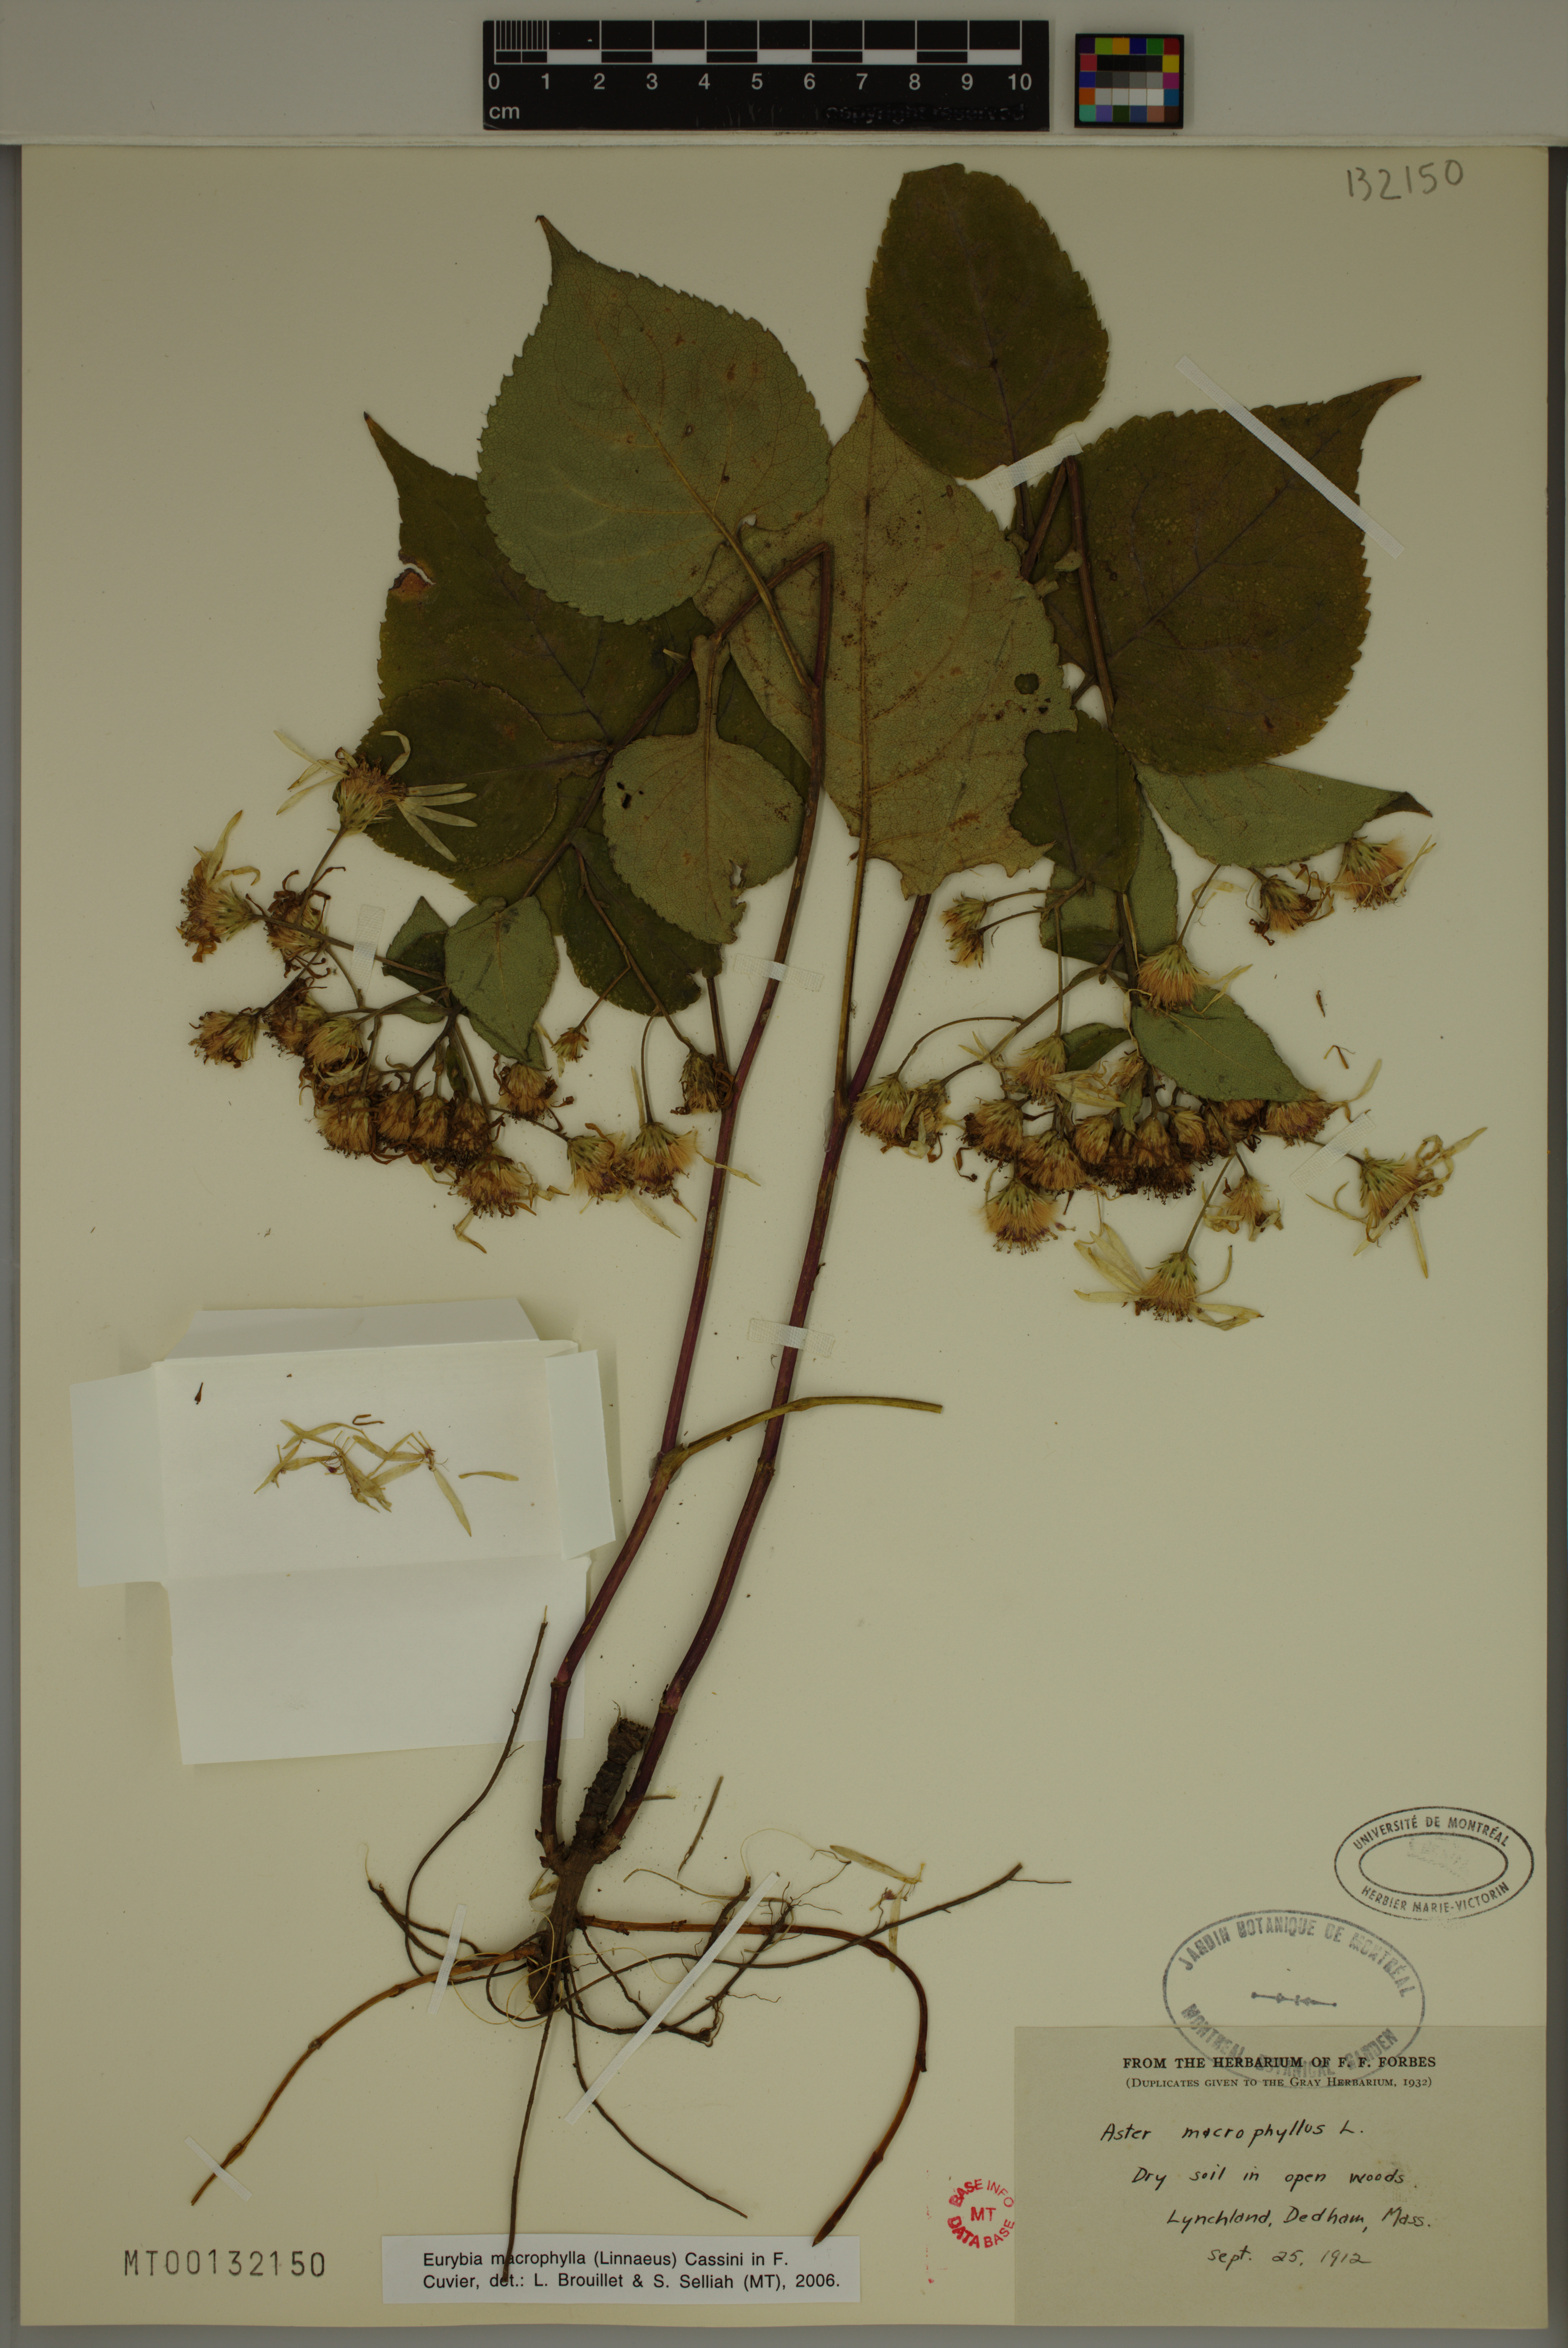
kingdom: Plantae
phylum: Tracheophyta
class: Magnoliopsida
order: Asterales
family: Asteraceae
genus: Eurybia
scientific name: Eurybia macrophylla
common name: Big-leaved aster
